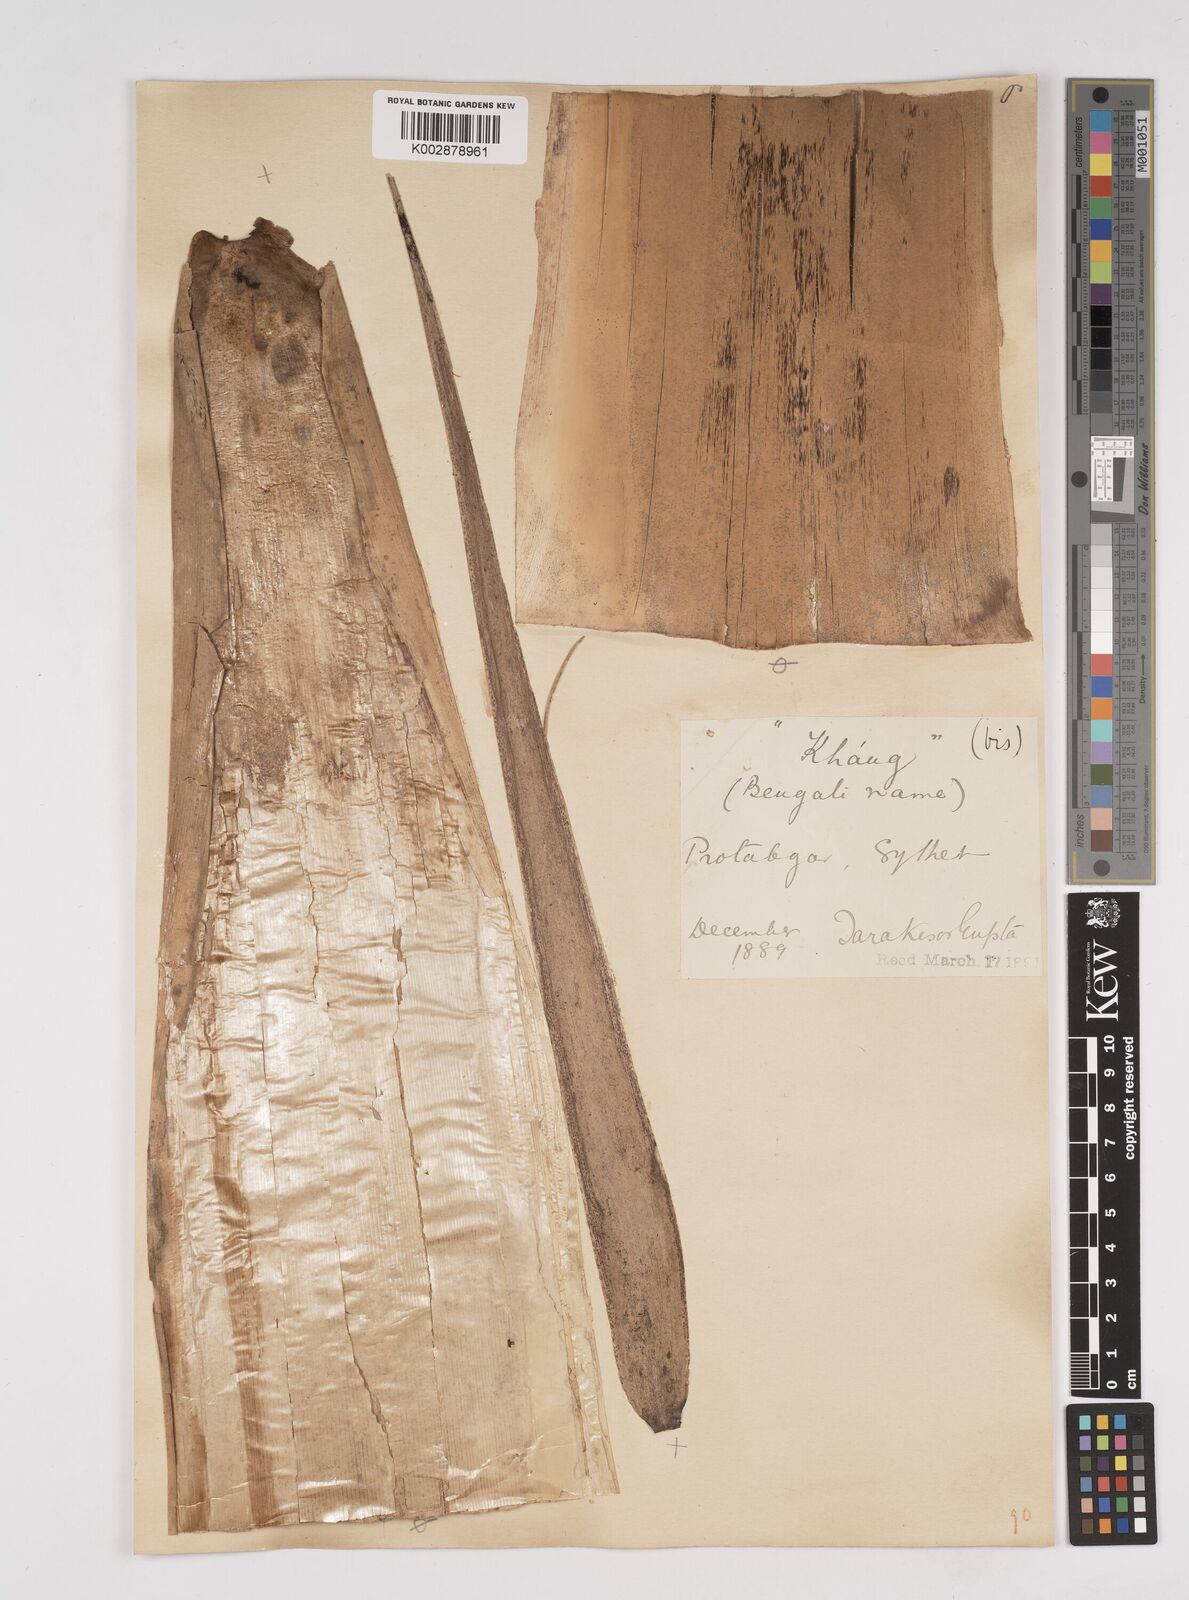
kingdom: Plantae
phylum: Tracheophyta
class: Liliopsida
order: Poales
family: Poaceae
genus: Dendrocalamus
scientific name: Dendrocalamus longispathus
